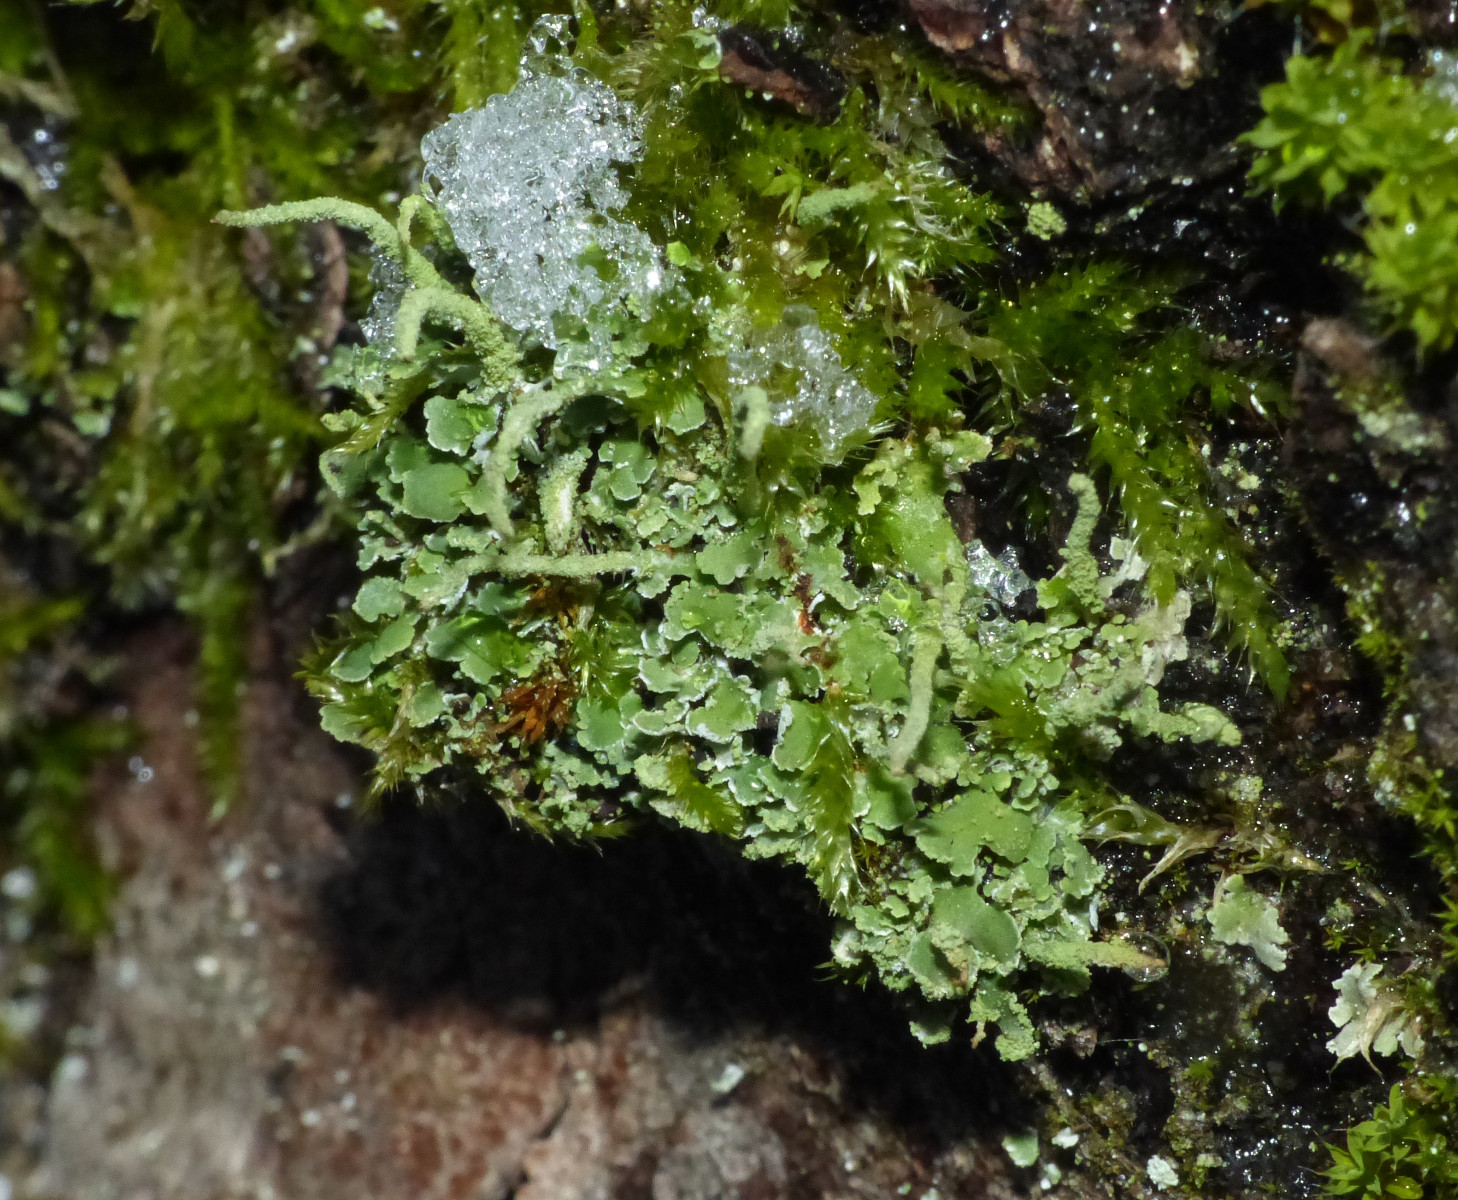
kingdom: Fungi
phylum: Ascomycota
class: Lecanoromycetes
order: Lecanorales
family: Cladoniaceae
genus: Cladonia
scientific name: Cladonia coniocraea
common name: træfods-bægerlav
